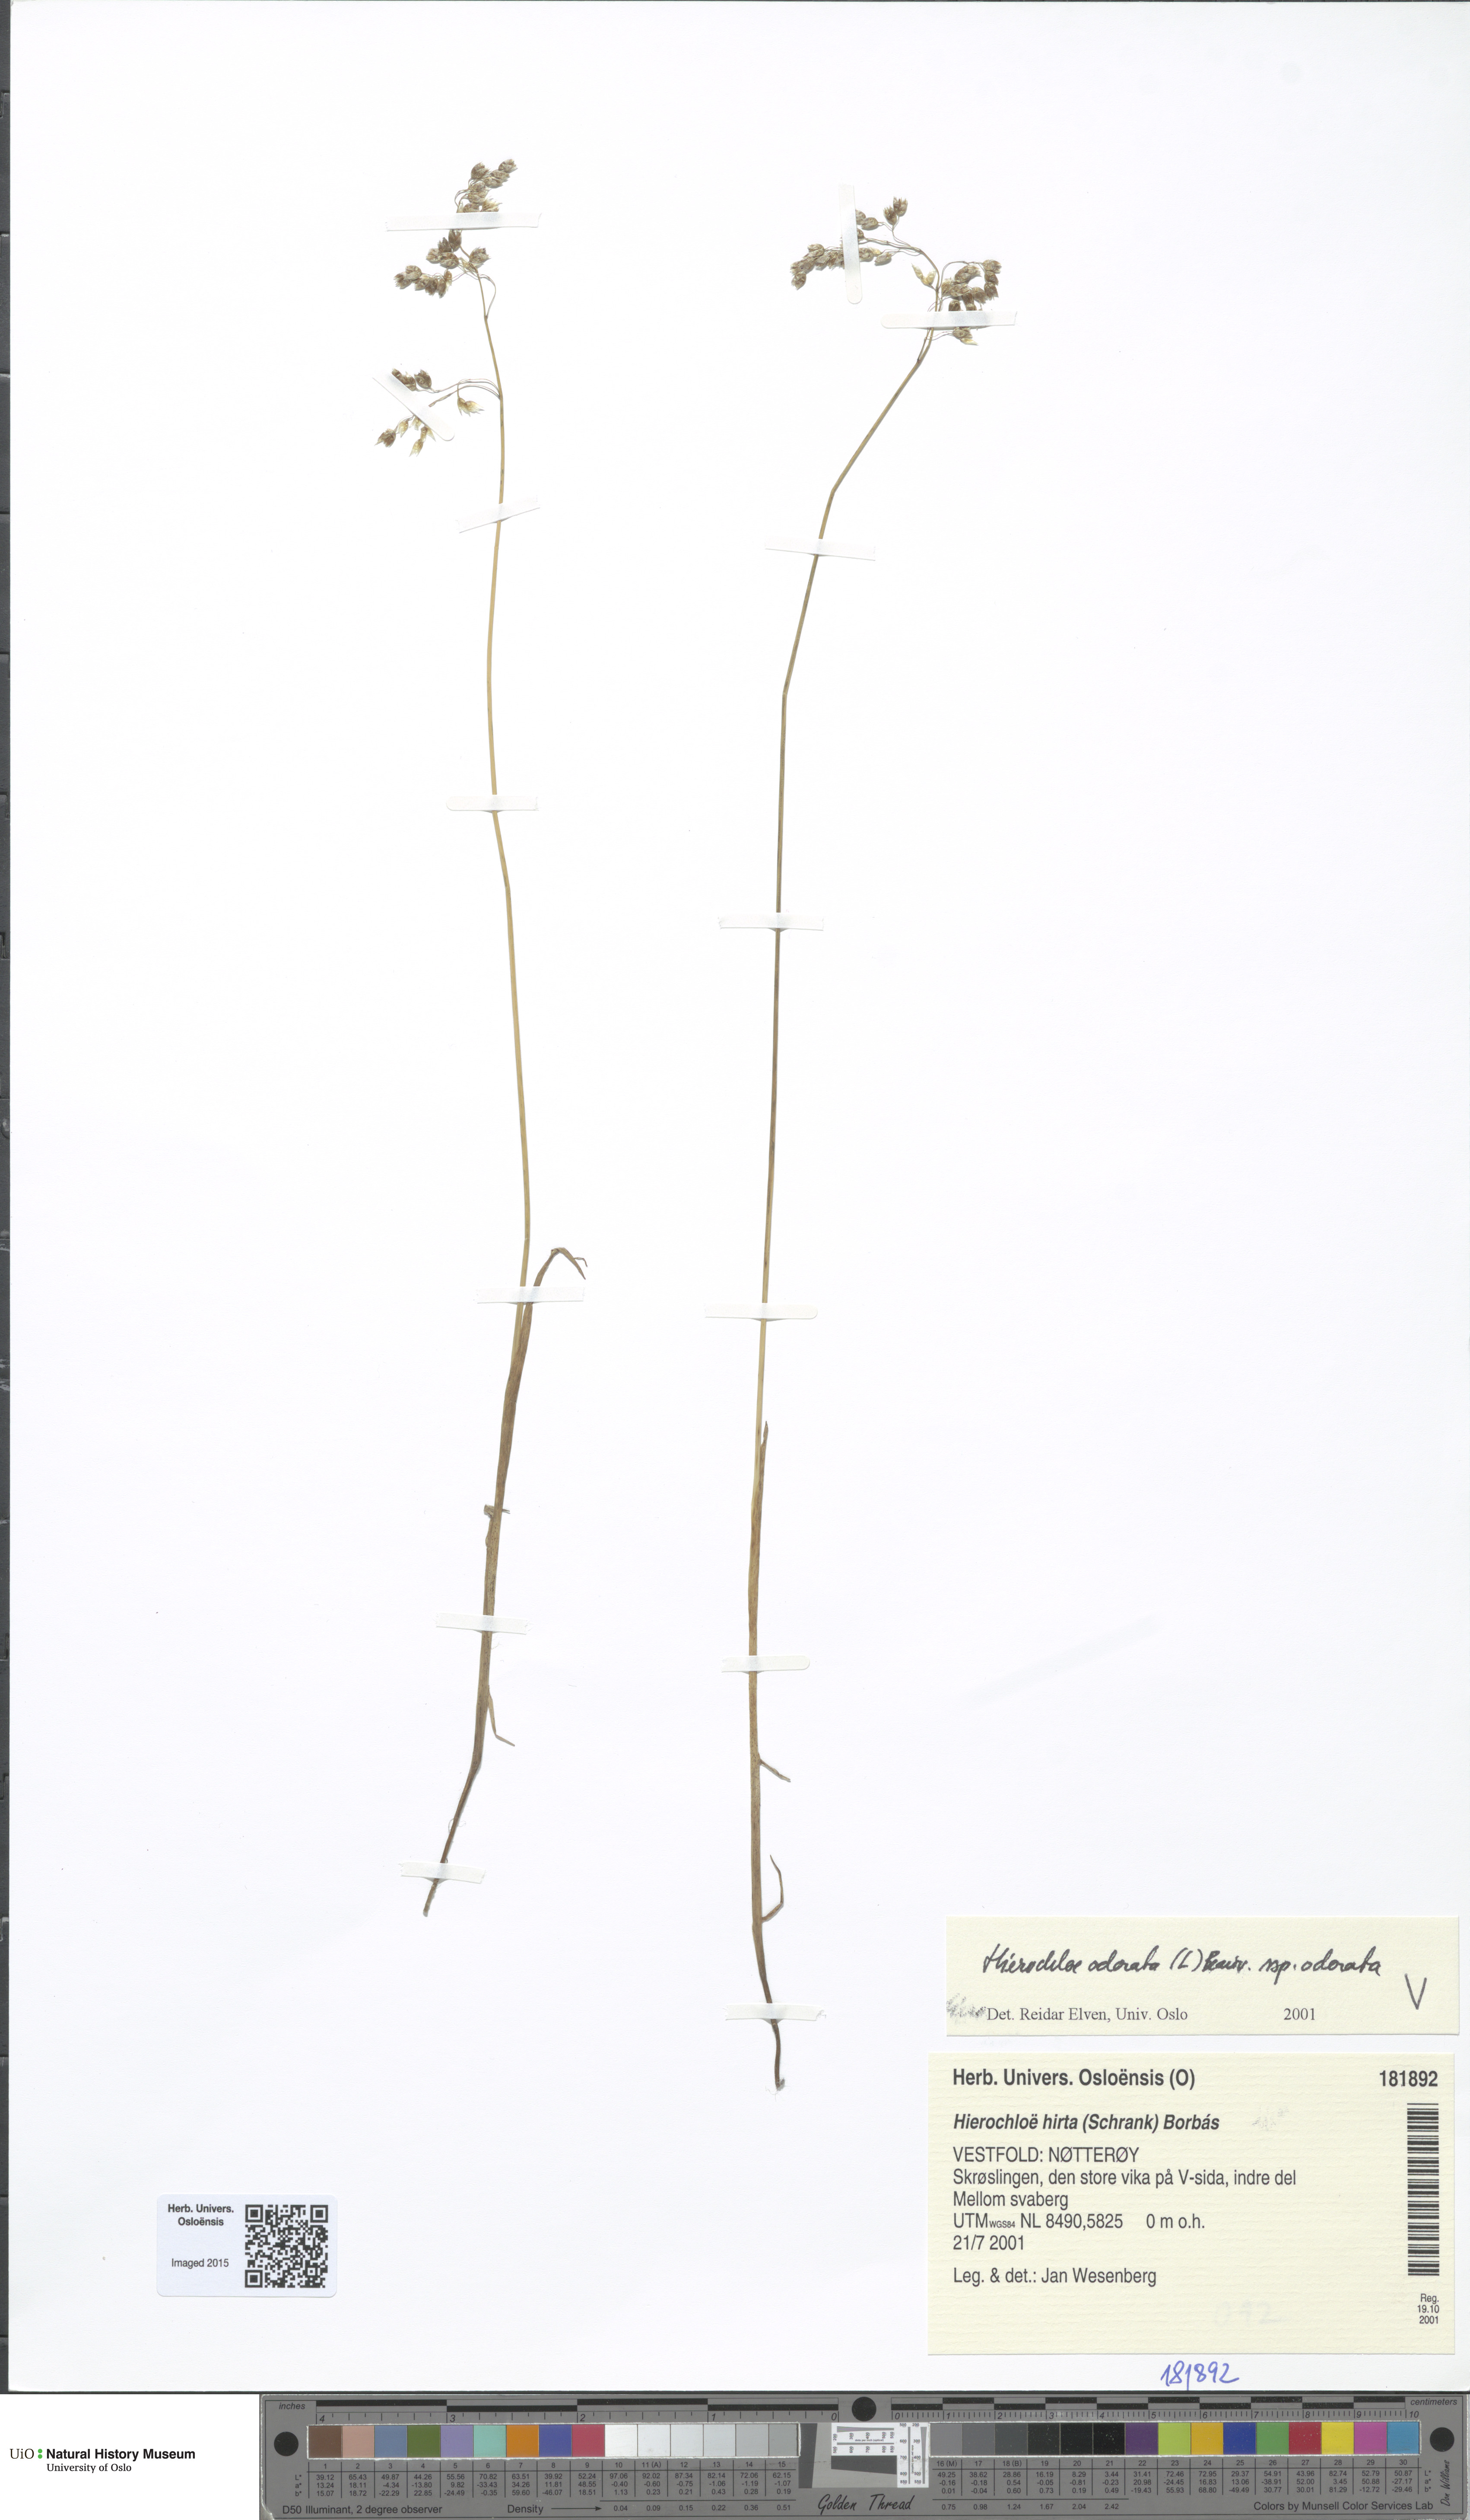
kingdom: Plantae
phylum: Tracheophyta
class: Liliopsida
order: Poales
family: Poaceae
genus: Anthoxanthum
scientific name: Anthoxanthum nitens
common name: Holy grass
